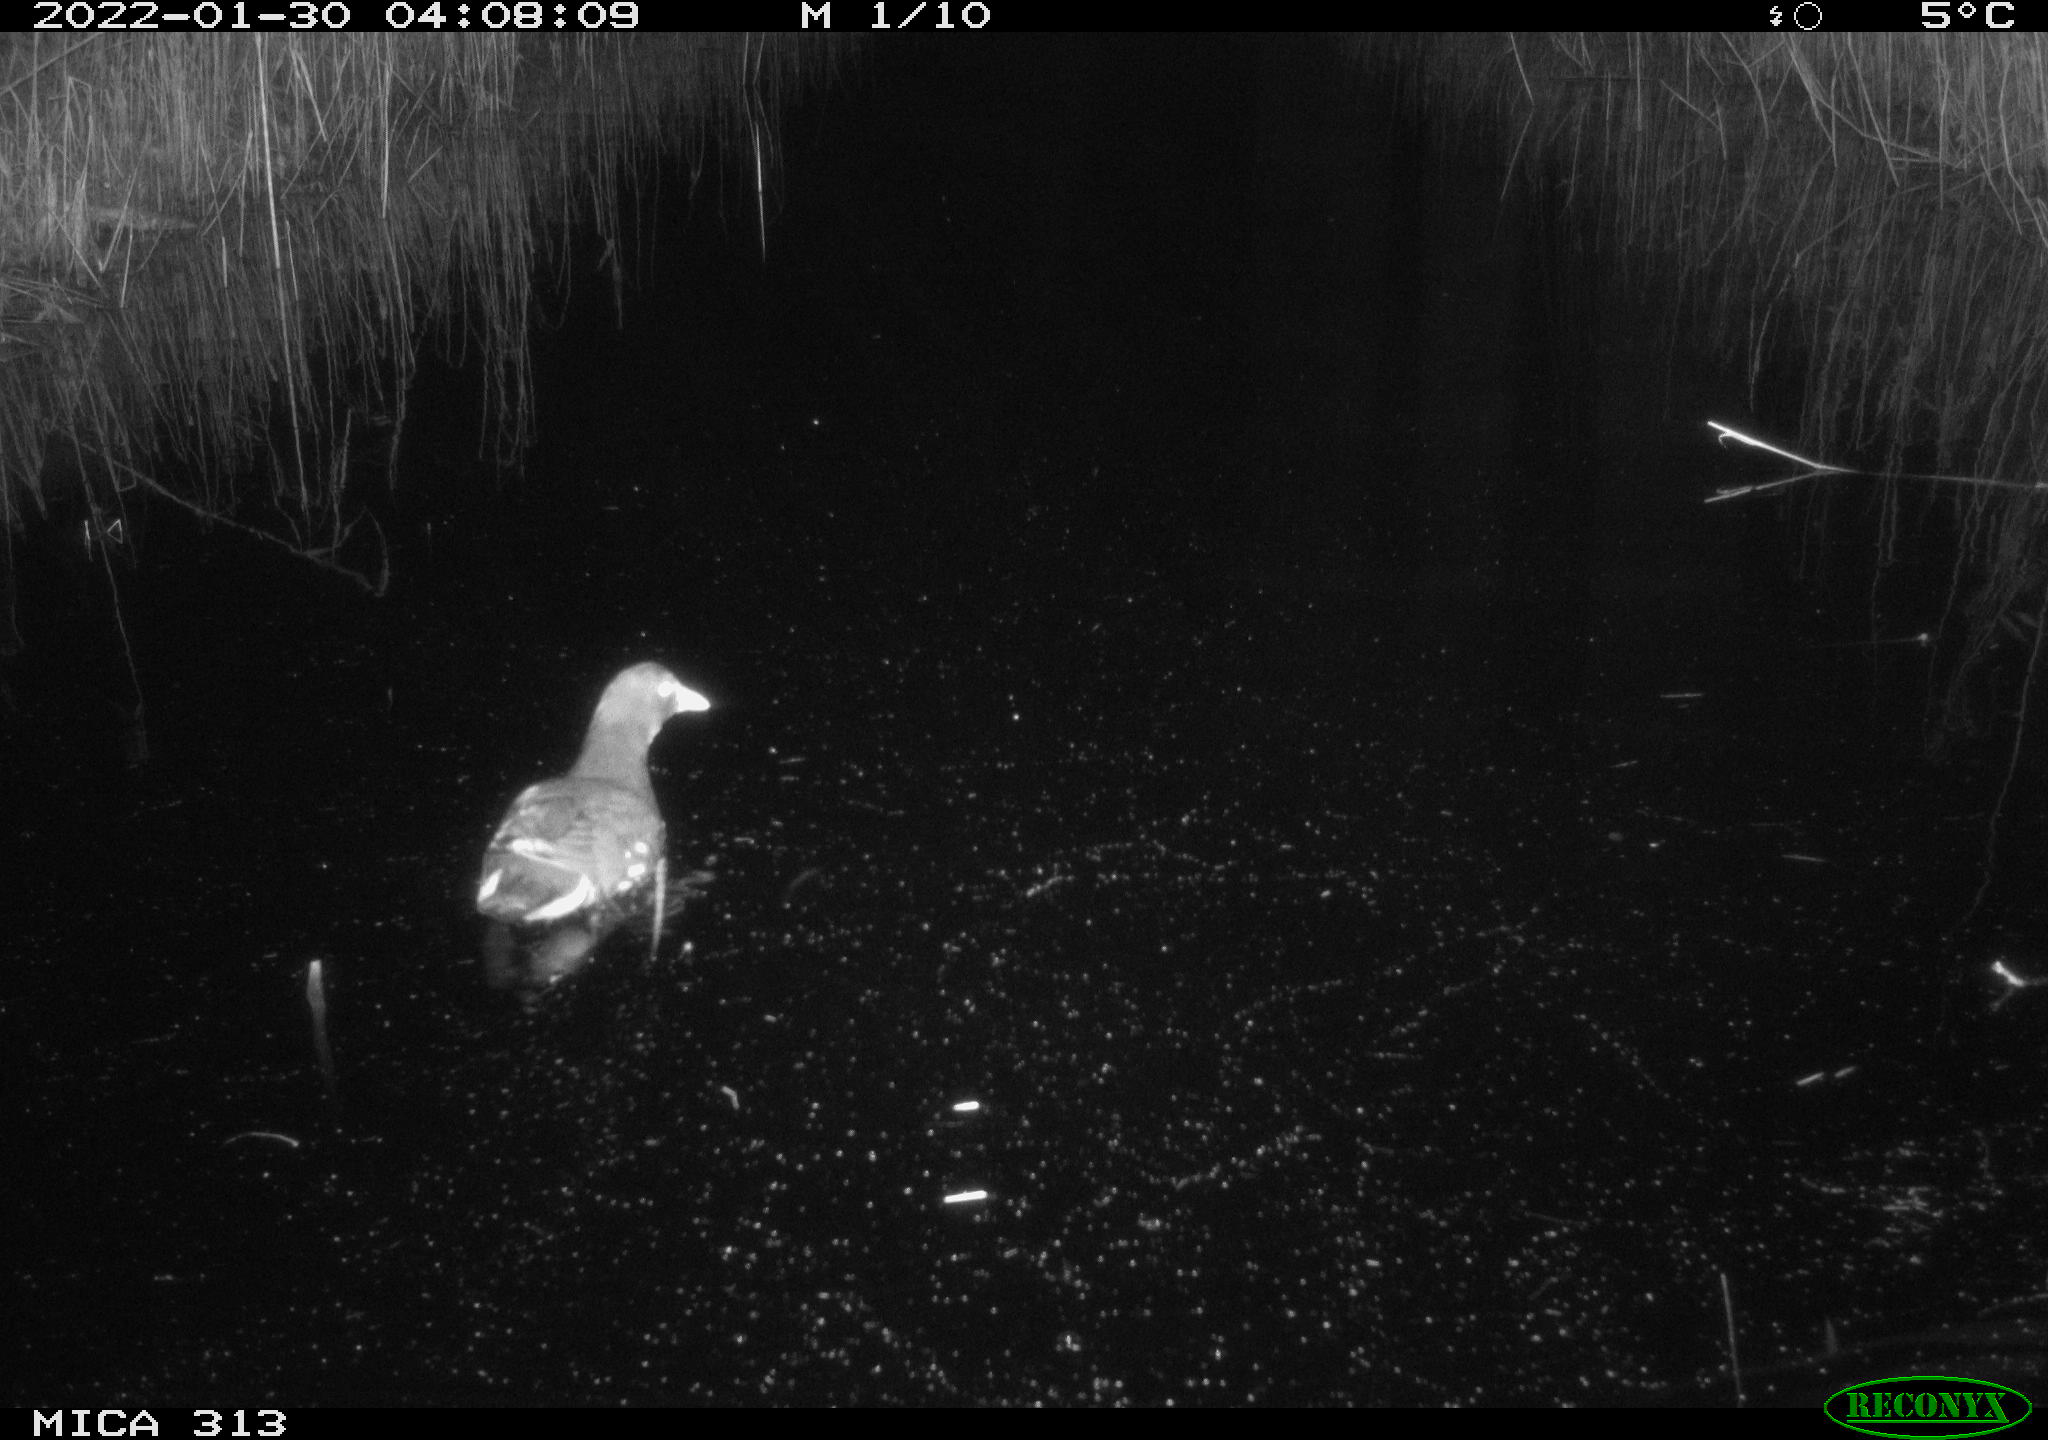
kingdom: Animalia
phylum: Chordata
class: Aves
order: Gruiformes
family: Rallidae
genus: Gallinula
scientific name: Gallinula chloropus
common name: Common moorhen
